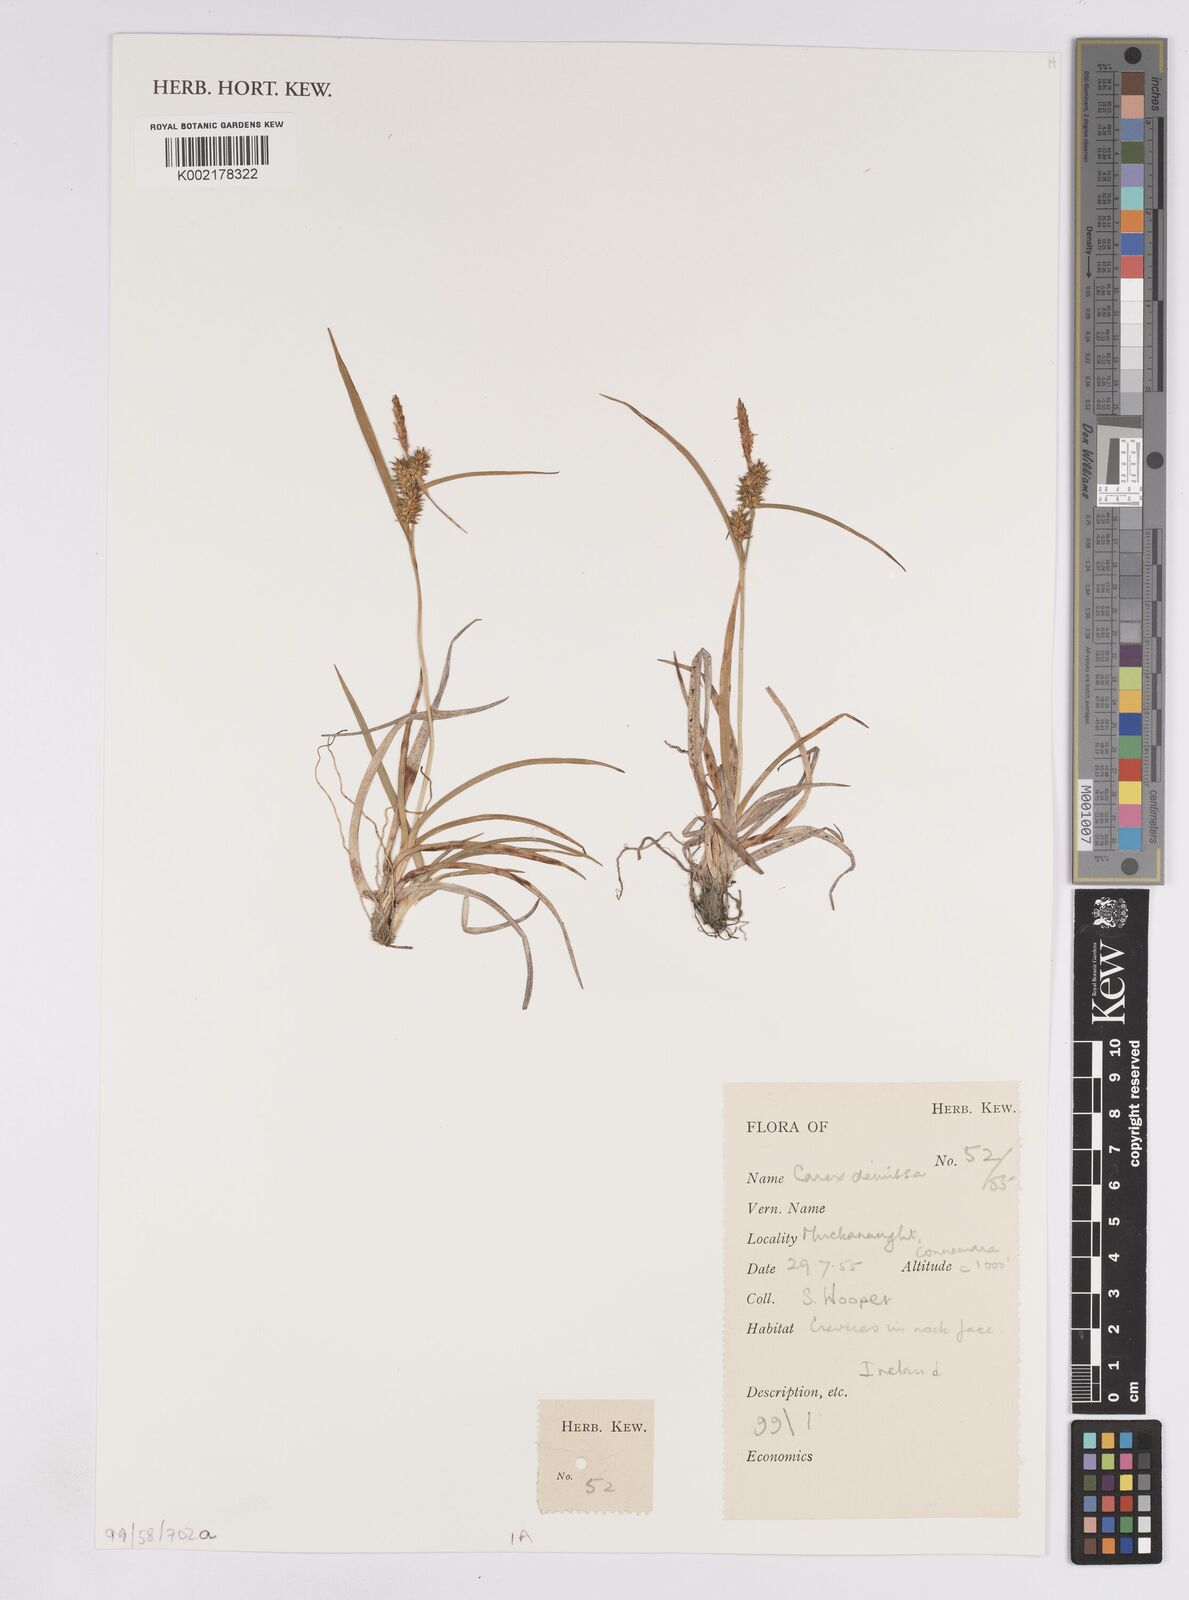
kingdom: Plantae
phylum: Tracheophyta
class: Liliopsida
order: Poales
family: Cyperaceae
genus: Carex
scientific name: Carex demissa
